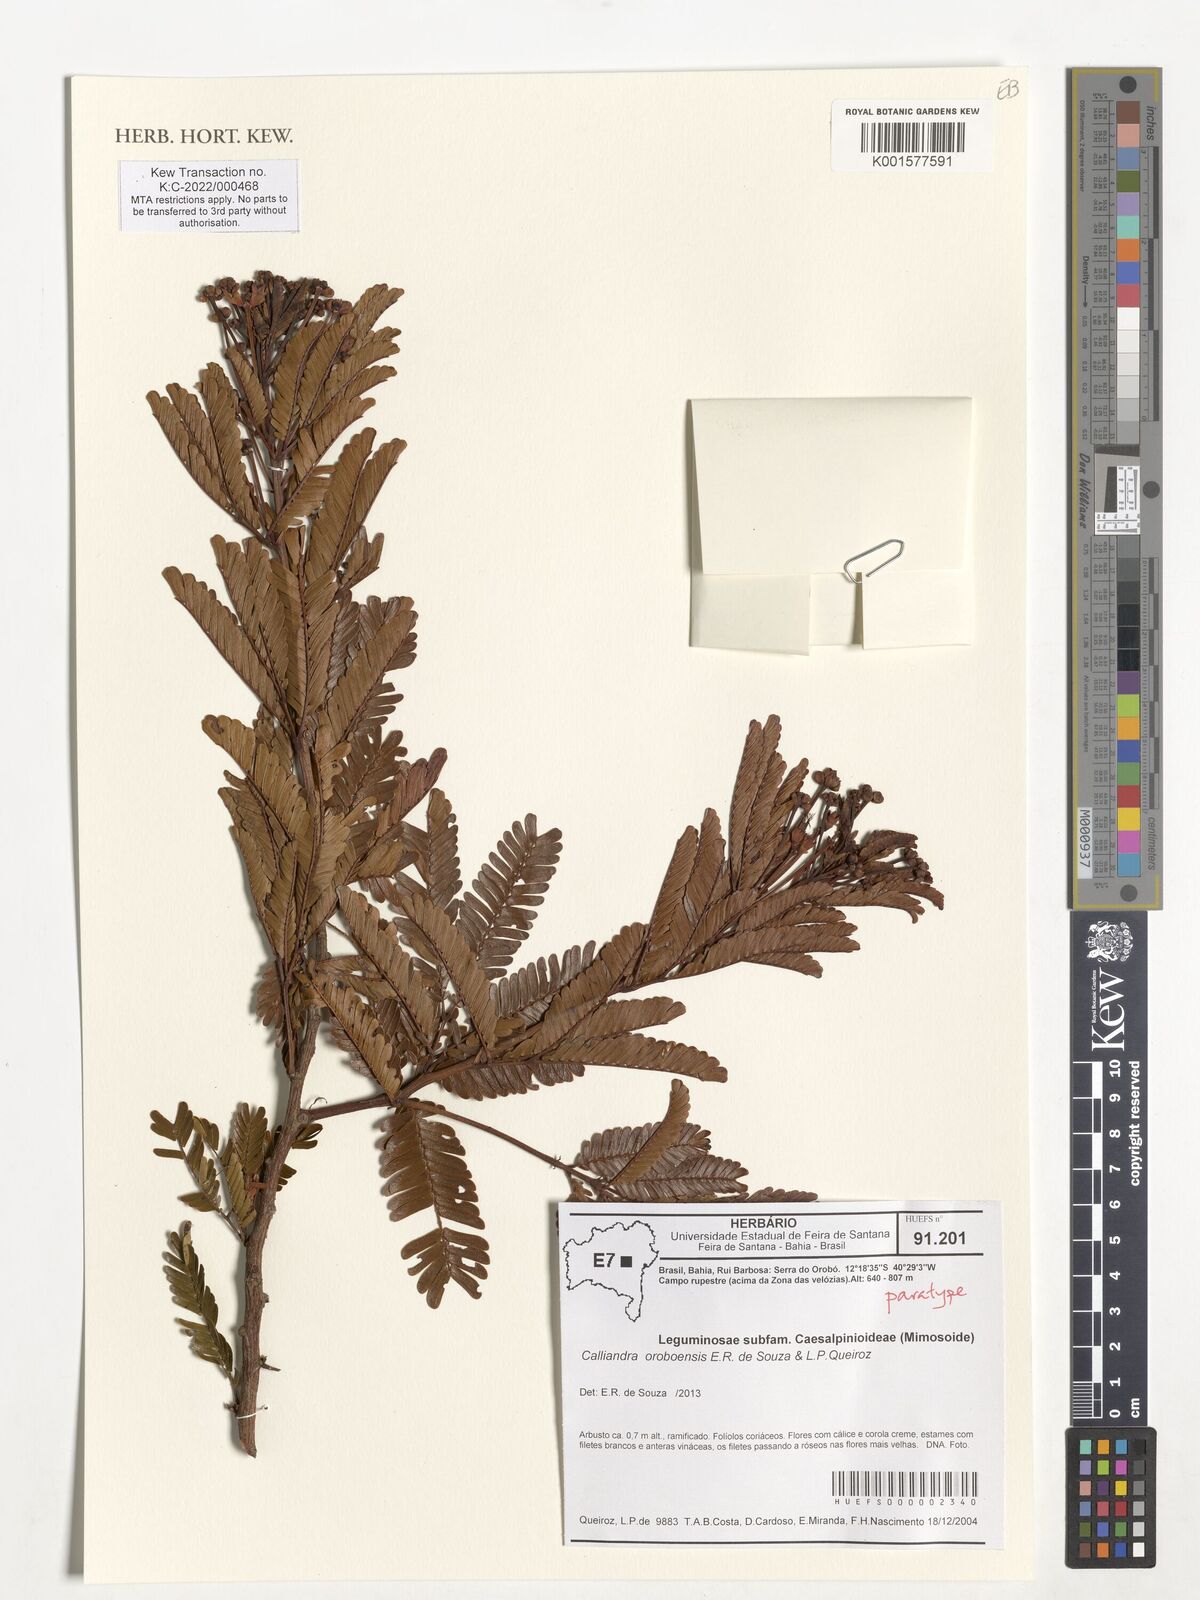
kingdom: Plantae
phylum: Tracheophyta
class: Magnoliopsida
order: Fabales
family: Fabaceae
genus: Calliandra
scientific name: Calliandra oroboensis
